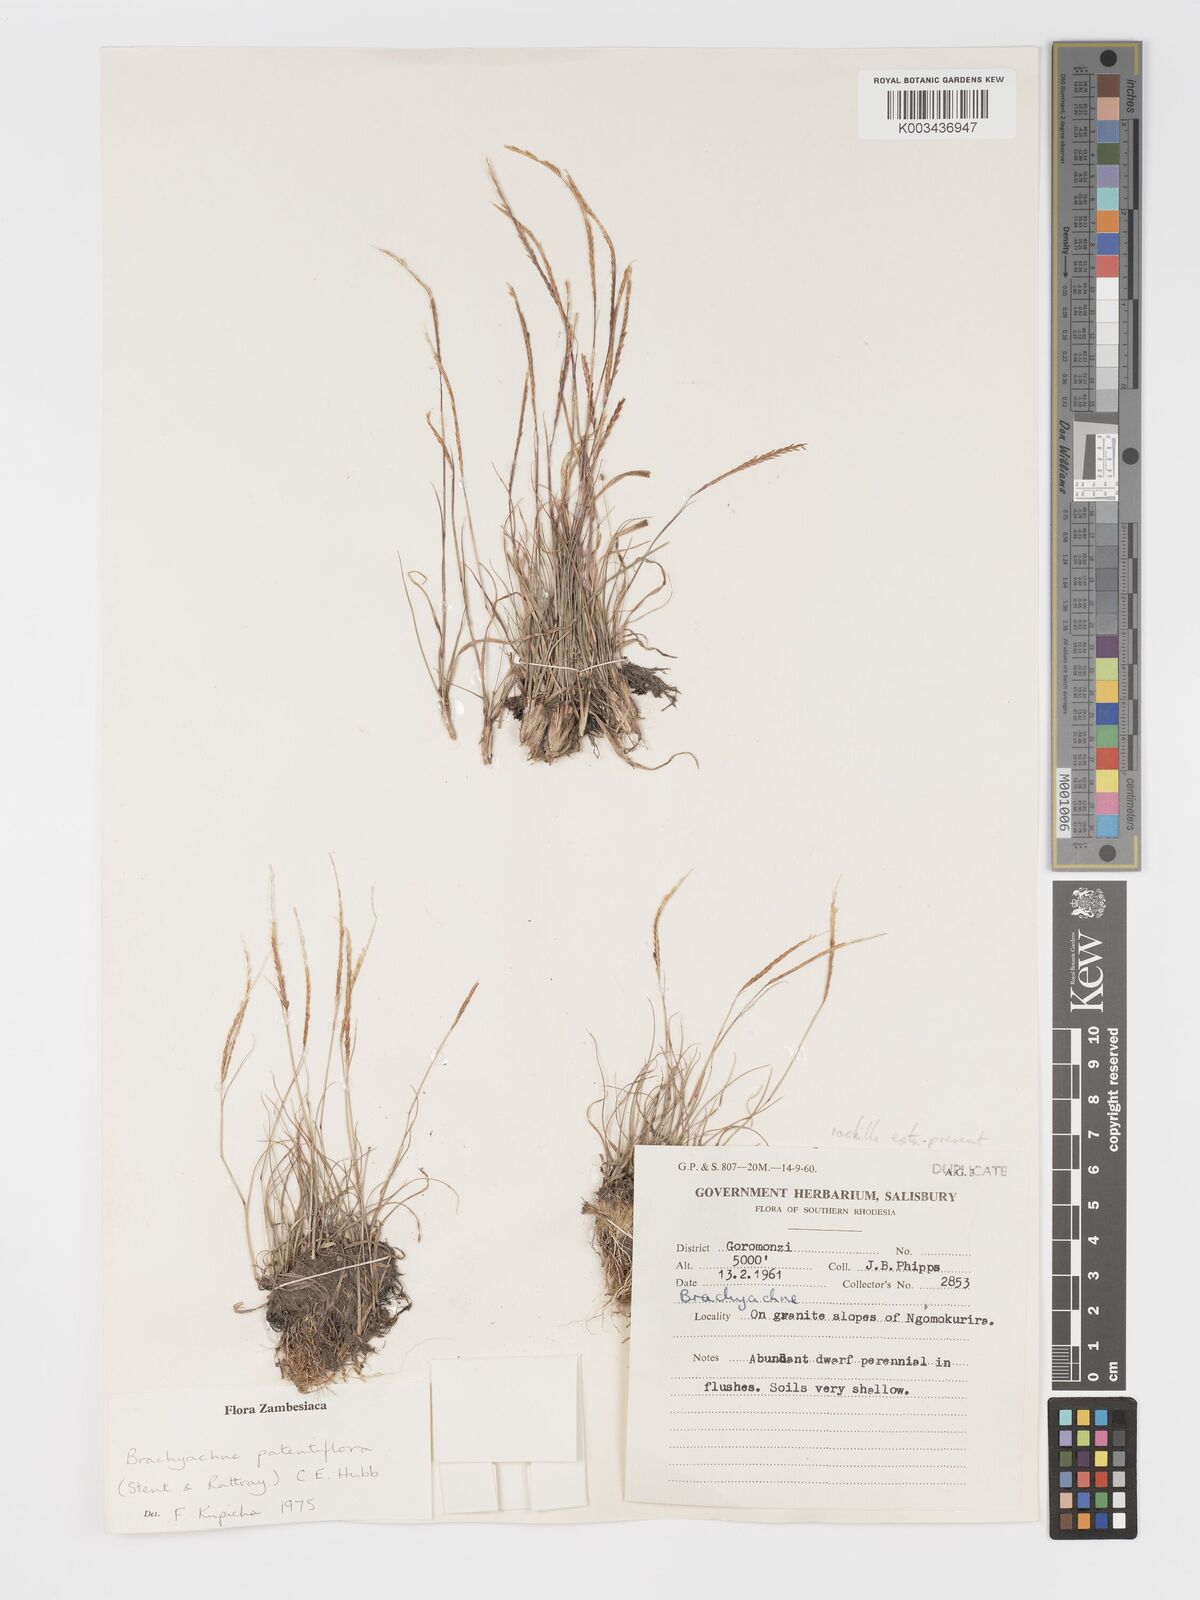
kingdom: Plantae
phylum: Tracheophyta
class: Liliopsida
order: Poales
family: Poaceae
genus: Micrachne
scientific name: Micrachne patentiflora
